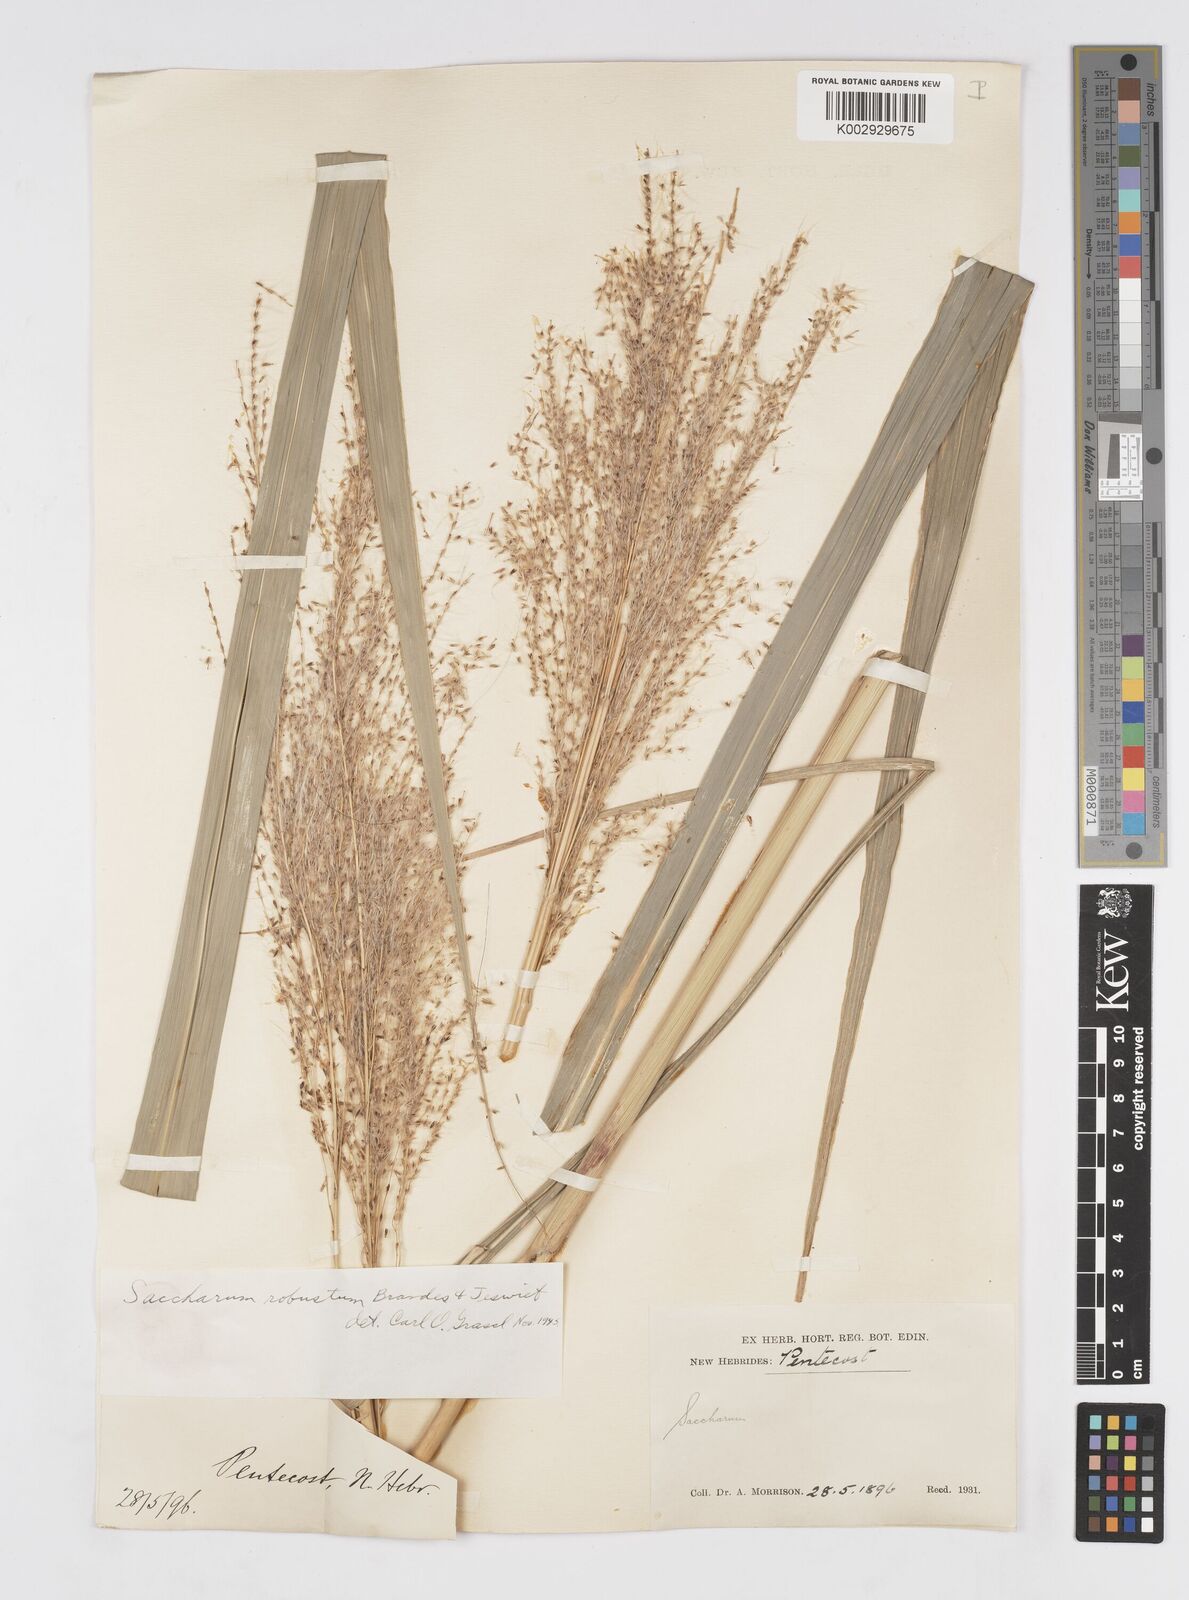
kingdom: Plantae
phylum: Tracheophyta
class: Liliopsida
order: Poales
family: Poaceae
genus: Saccharum
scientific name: Saccharum robustum
